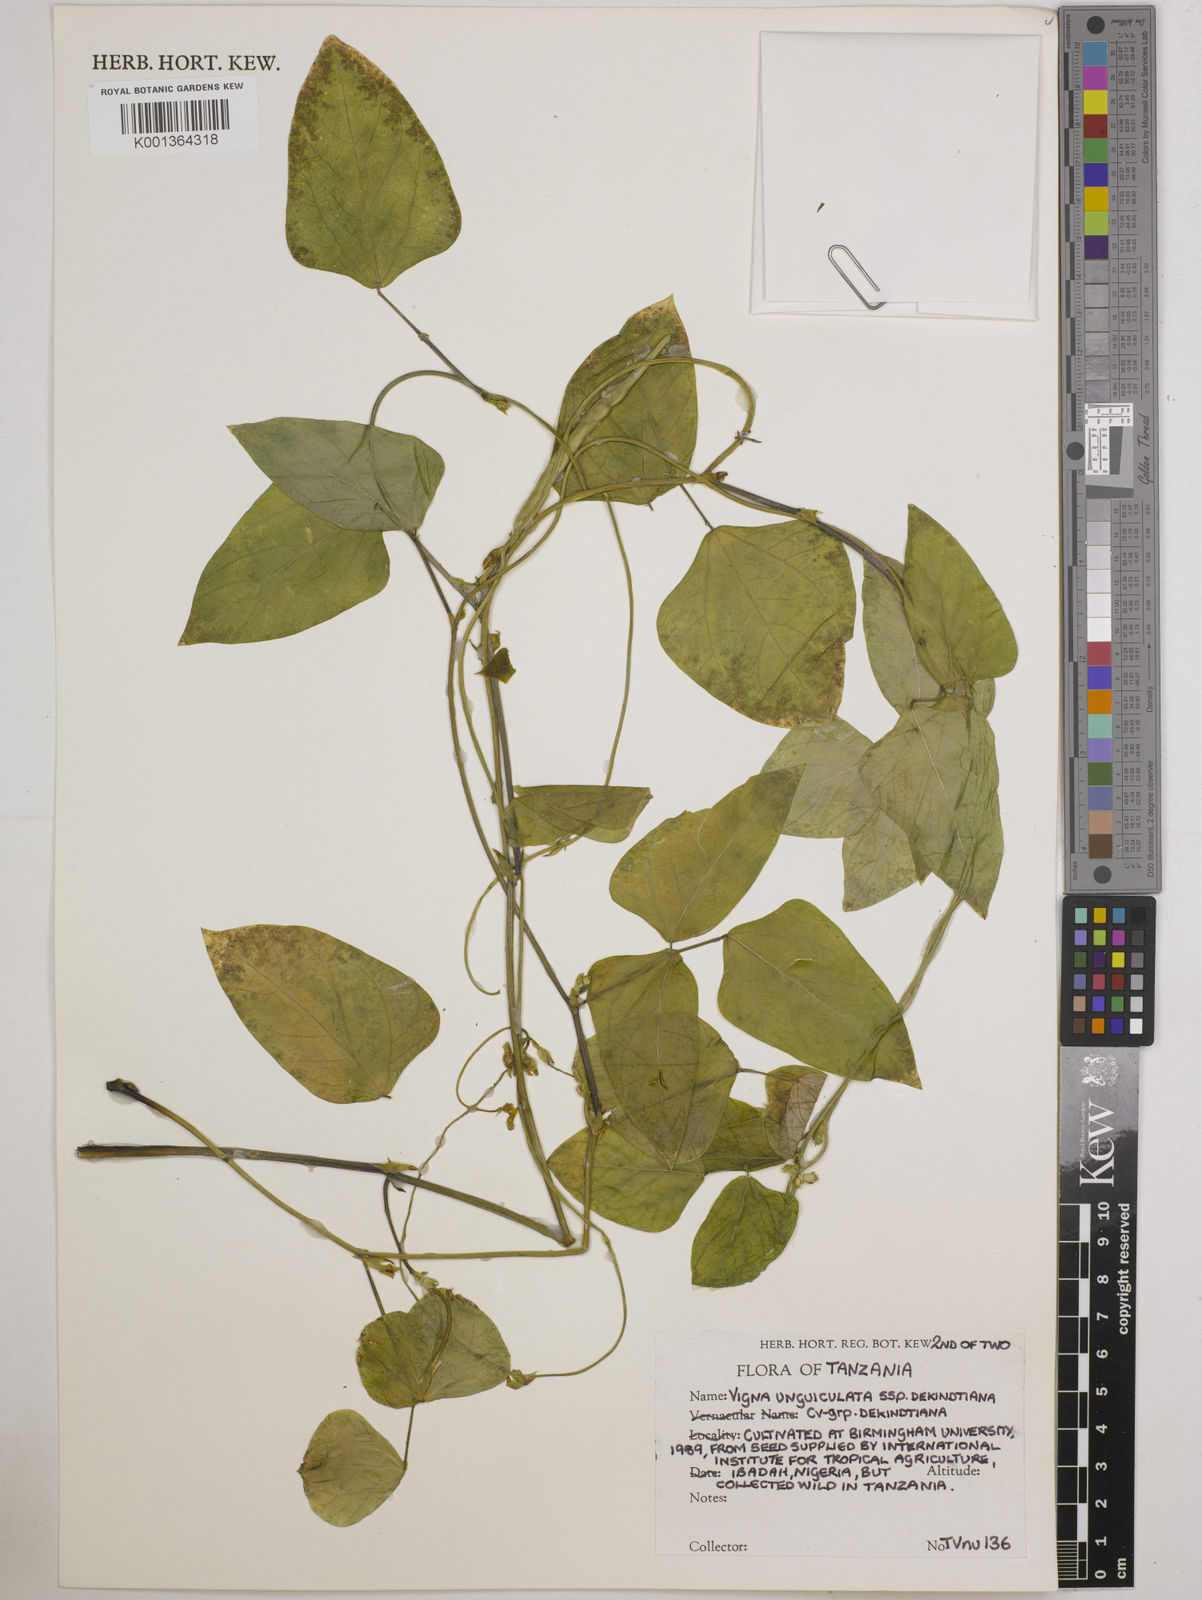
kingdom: Plantae
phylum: Tracheophyta
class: Magnoliopsida
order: Fabales
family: Fabaceae
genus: Vigna
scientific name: Vigna
